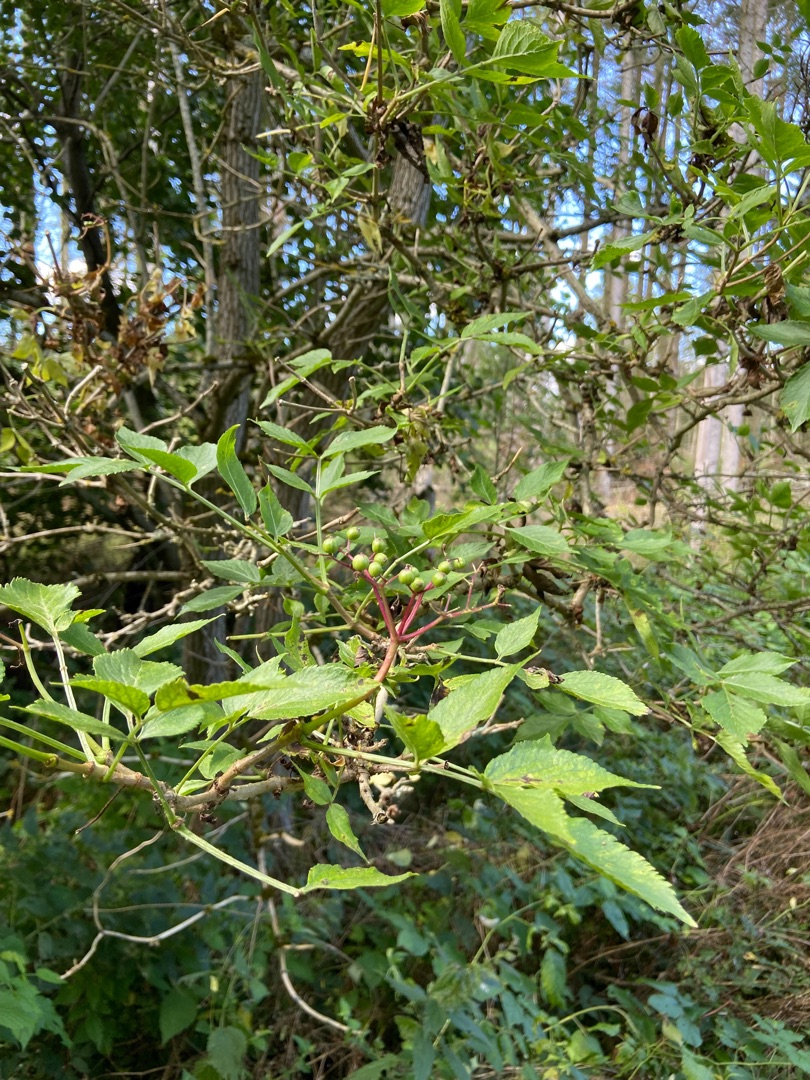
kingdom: Plantae
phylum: Tracheophyta
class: Magnoliopsida
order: Dipsacales
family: Viburnaceae
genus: Sambucus
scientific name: Sambucus nigra
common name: Almindelig hyld
